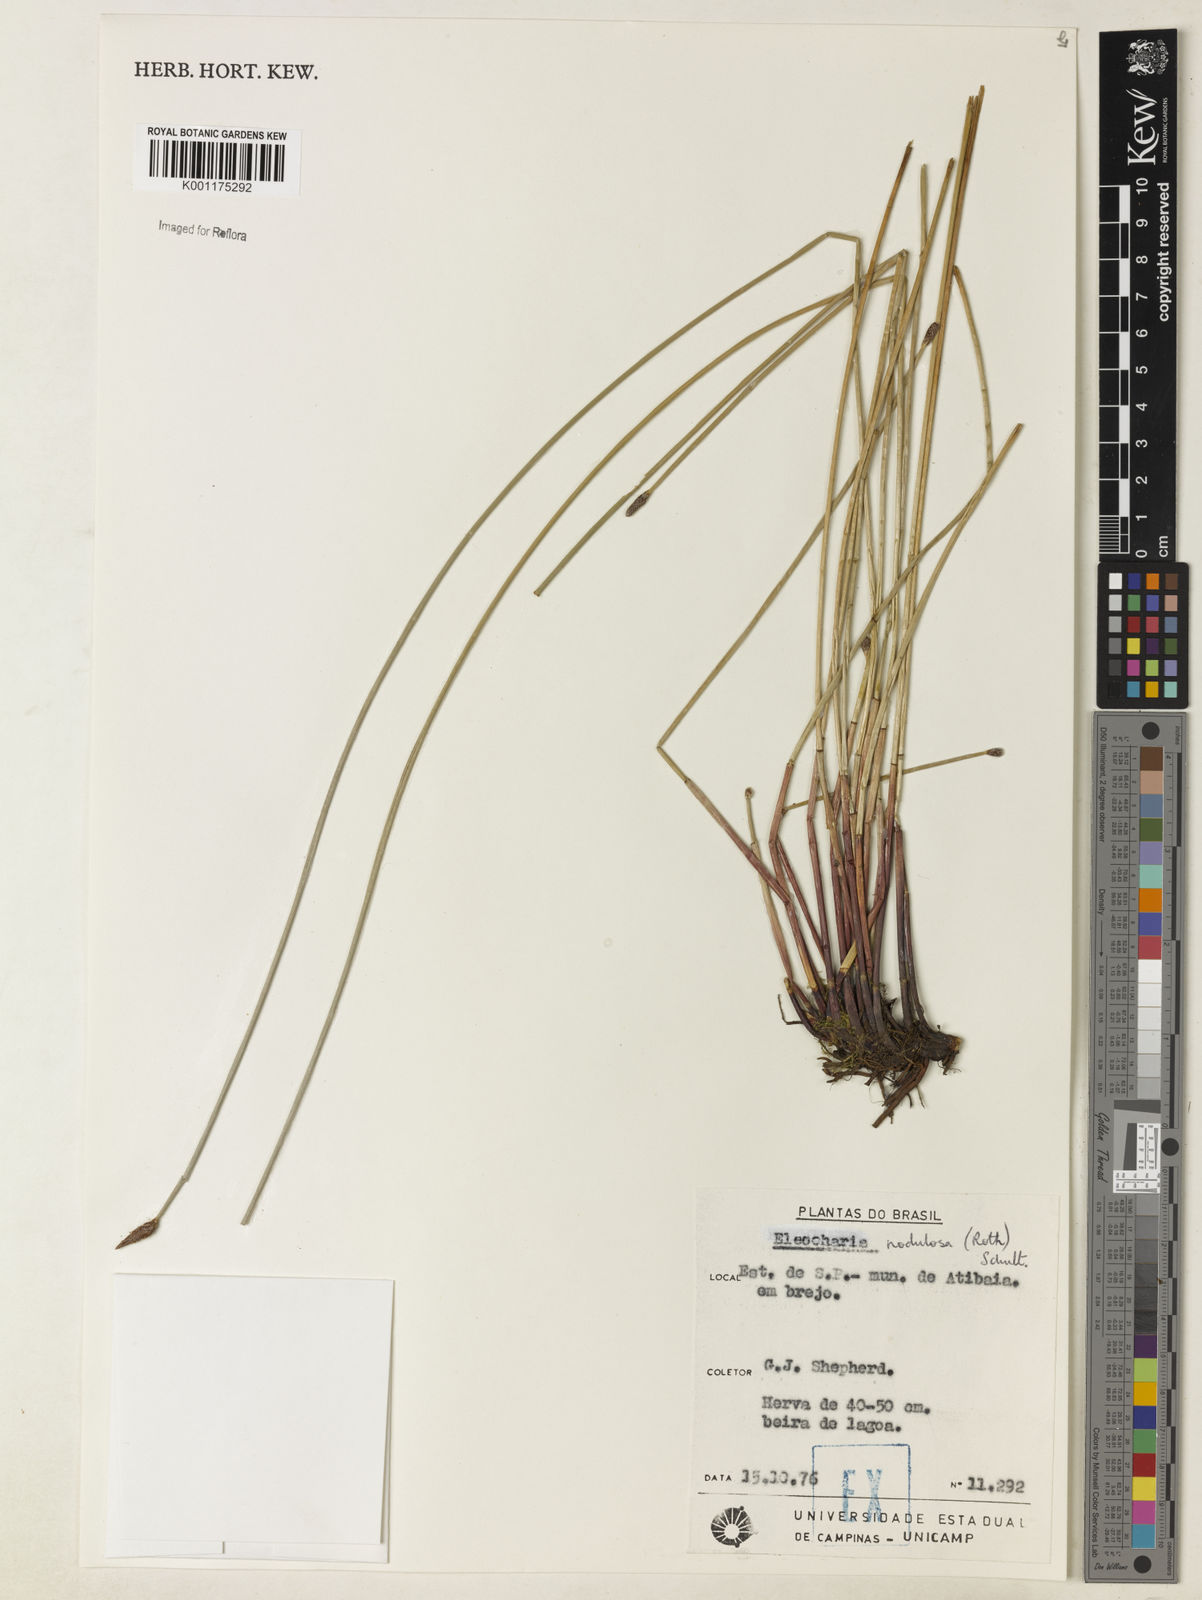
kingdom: Plantae
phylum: Tracheophyta
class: Liliopsida
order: Poales
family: Cyperaceae
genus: Eleocharis
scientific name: Eleocharis montana
